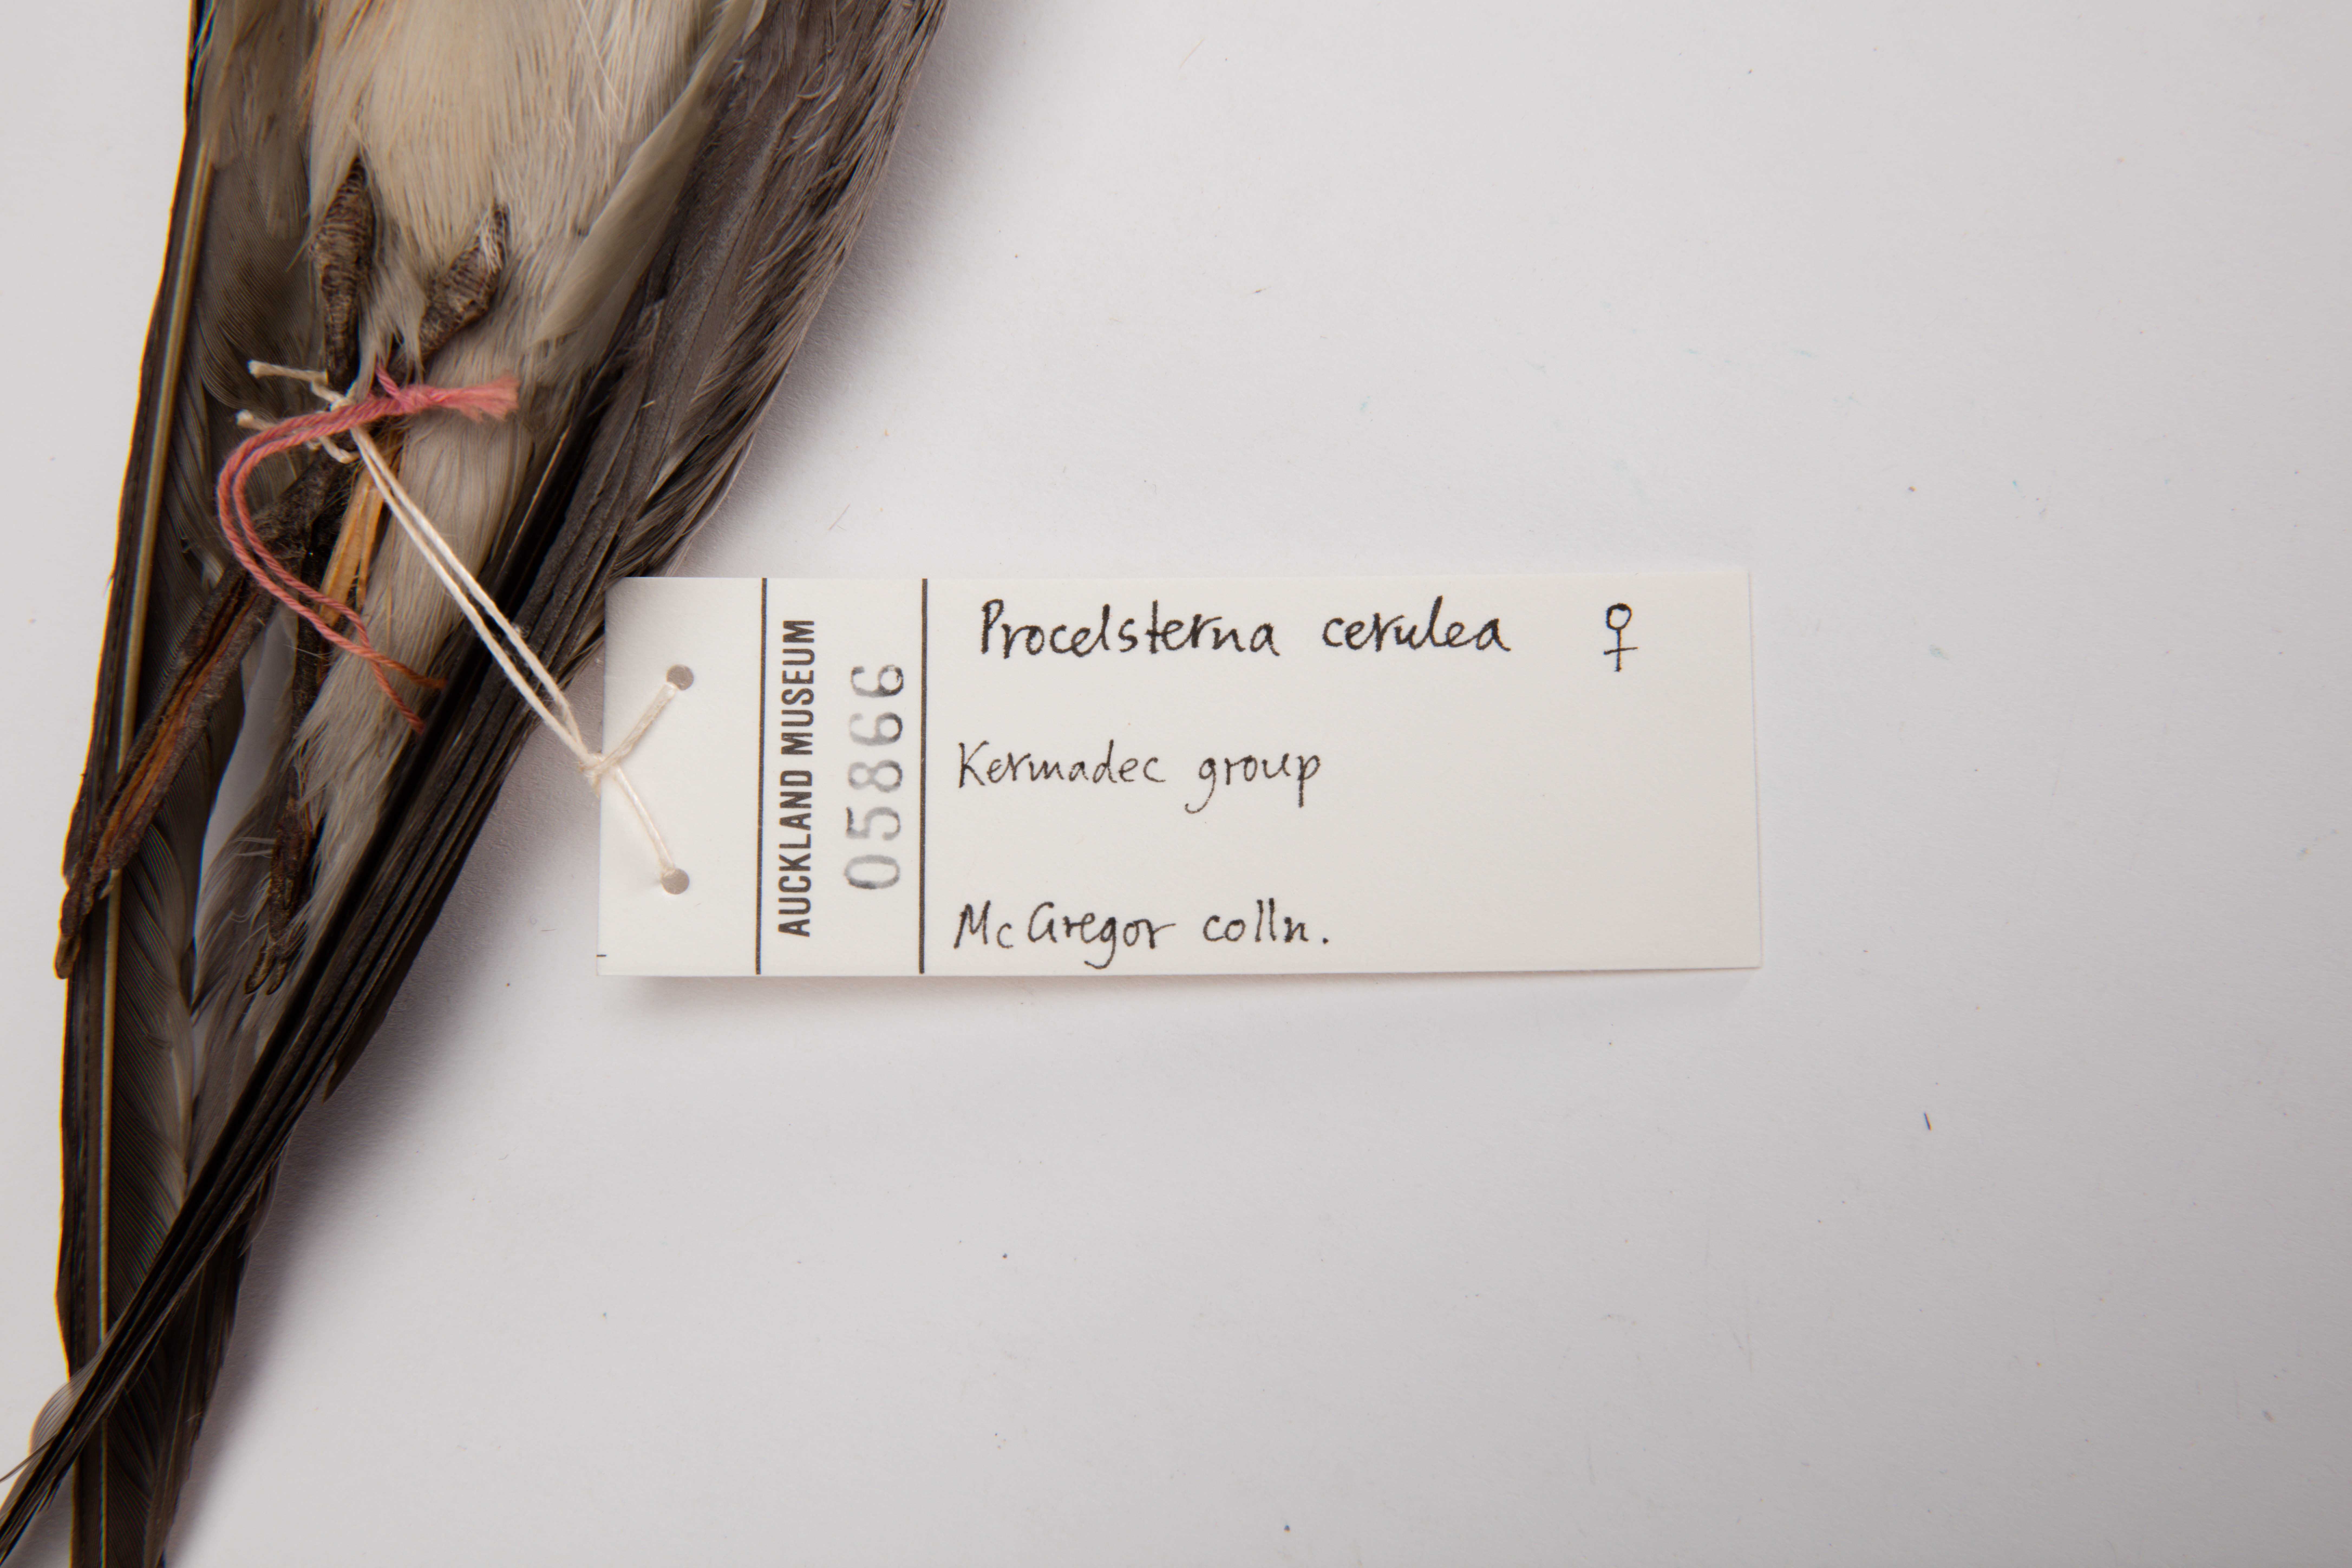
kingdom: Animalia
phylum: Chordata
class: Aves
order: Charadriiformes
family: Laridae
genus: Anous
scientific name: Anous ceruleus
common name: Blue-gray noddy
